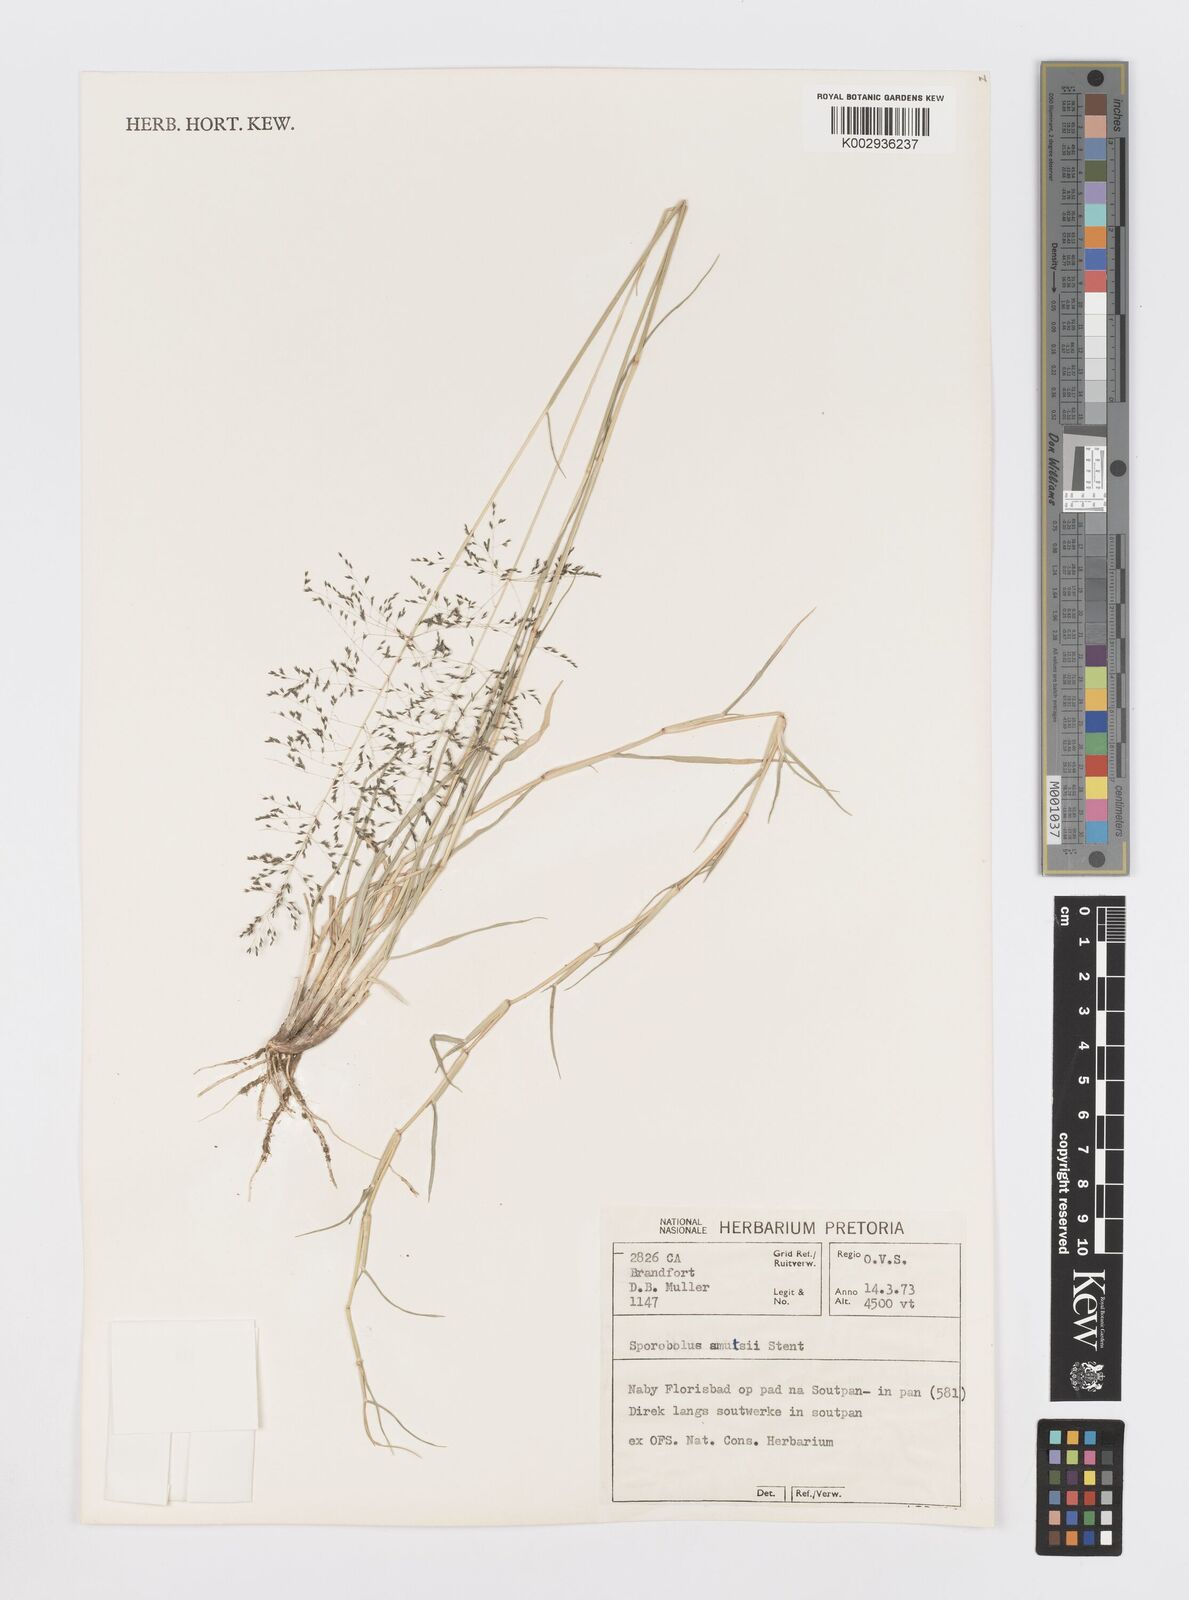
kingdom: Plantae
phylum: Tracheophyta
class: Liliopsida
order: Poales
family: Poaceae
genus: Sporobolus
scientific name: Sporobolus ioclados
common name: Pan dropseed
